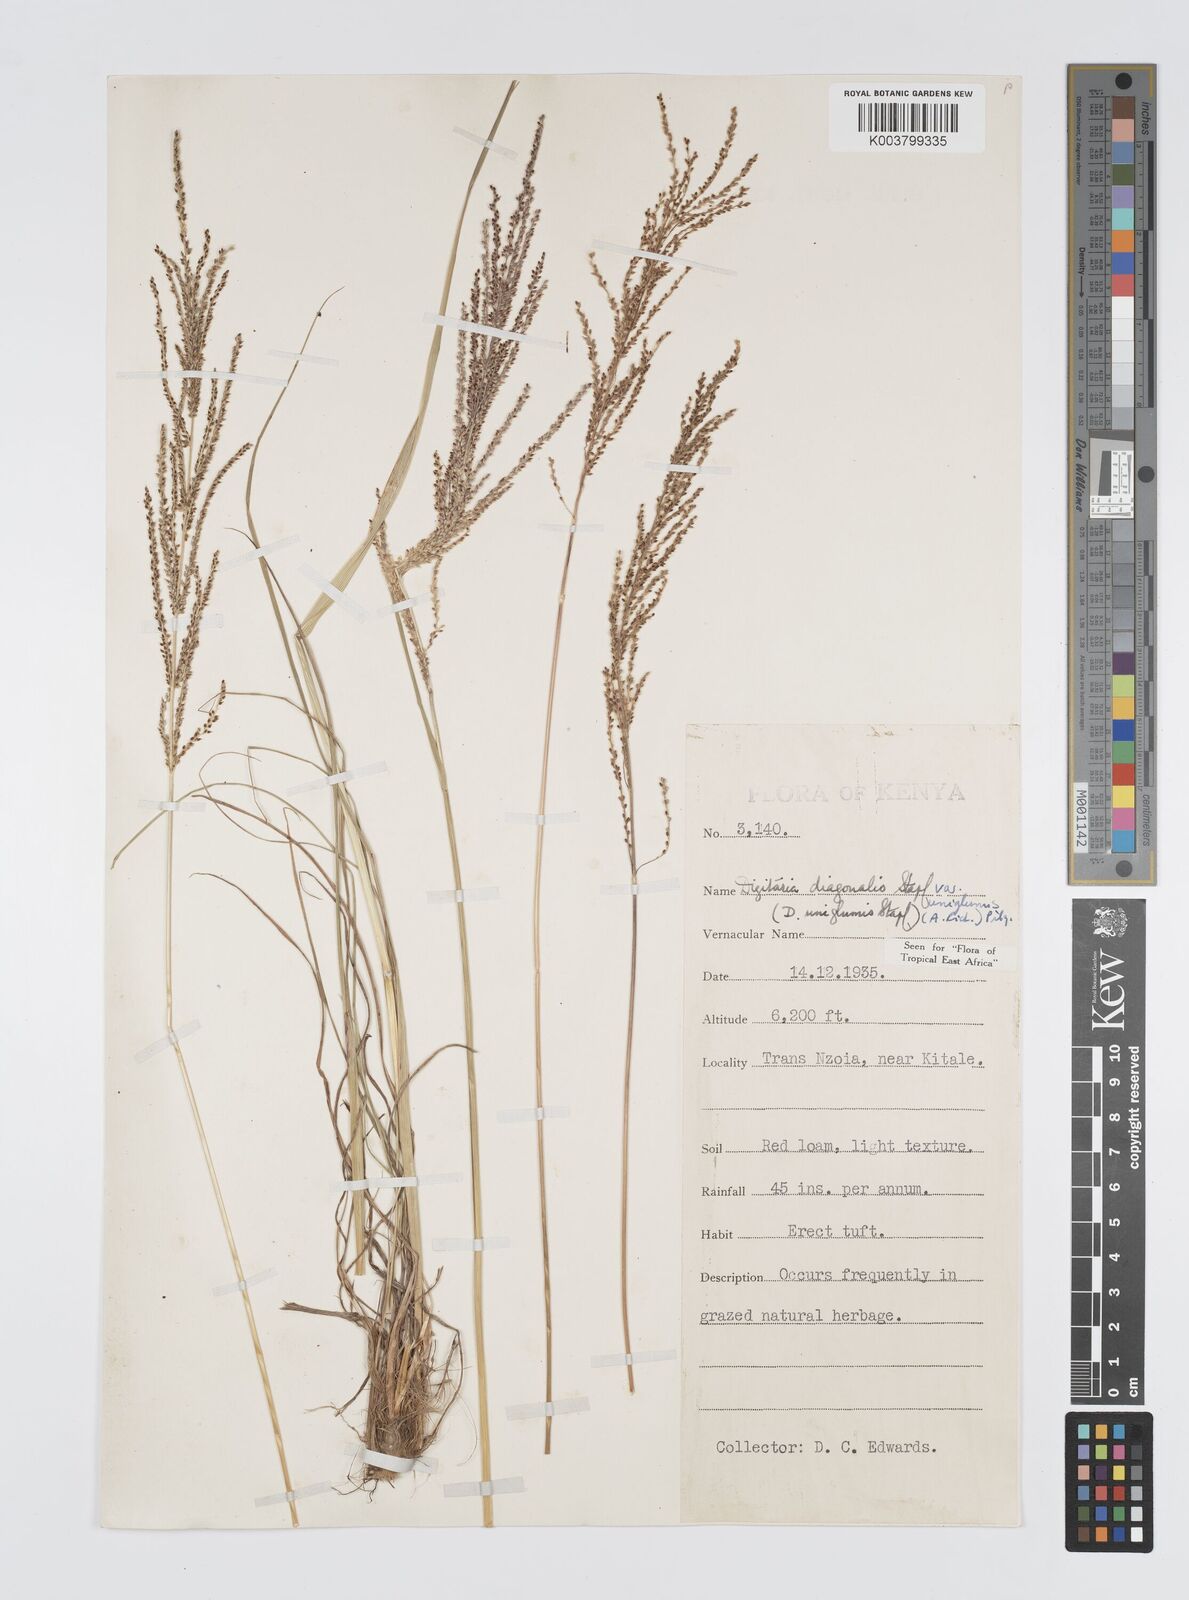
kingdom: Plantae
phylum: Tracheophyta
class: Liliopsida
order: Poales
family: Poaceae
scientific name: Poaceae
